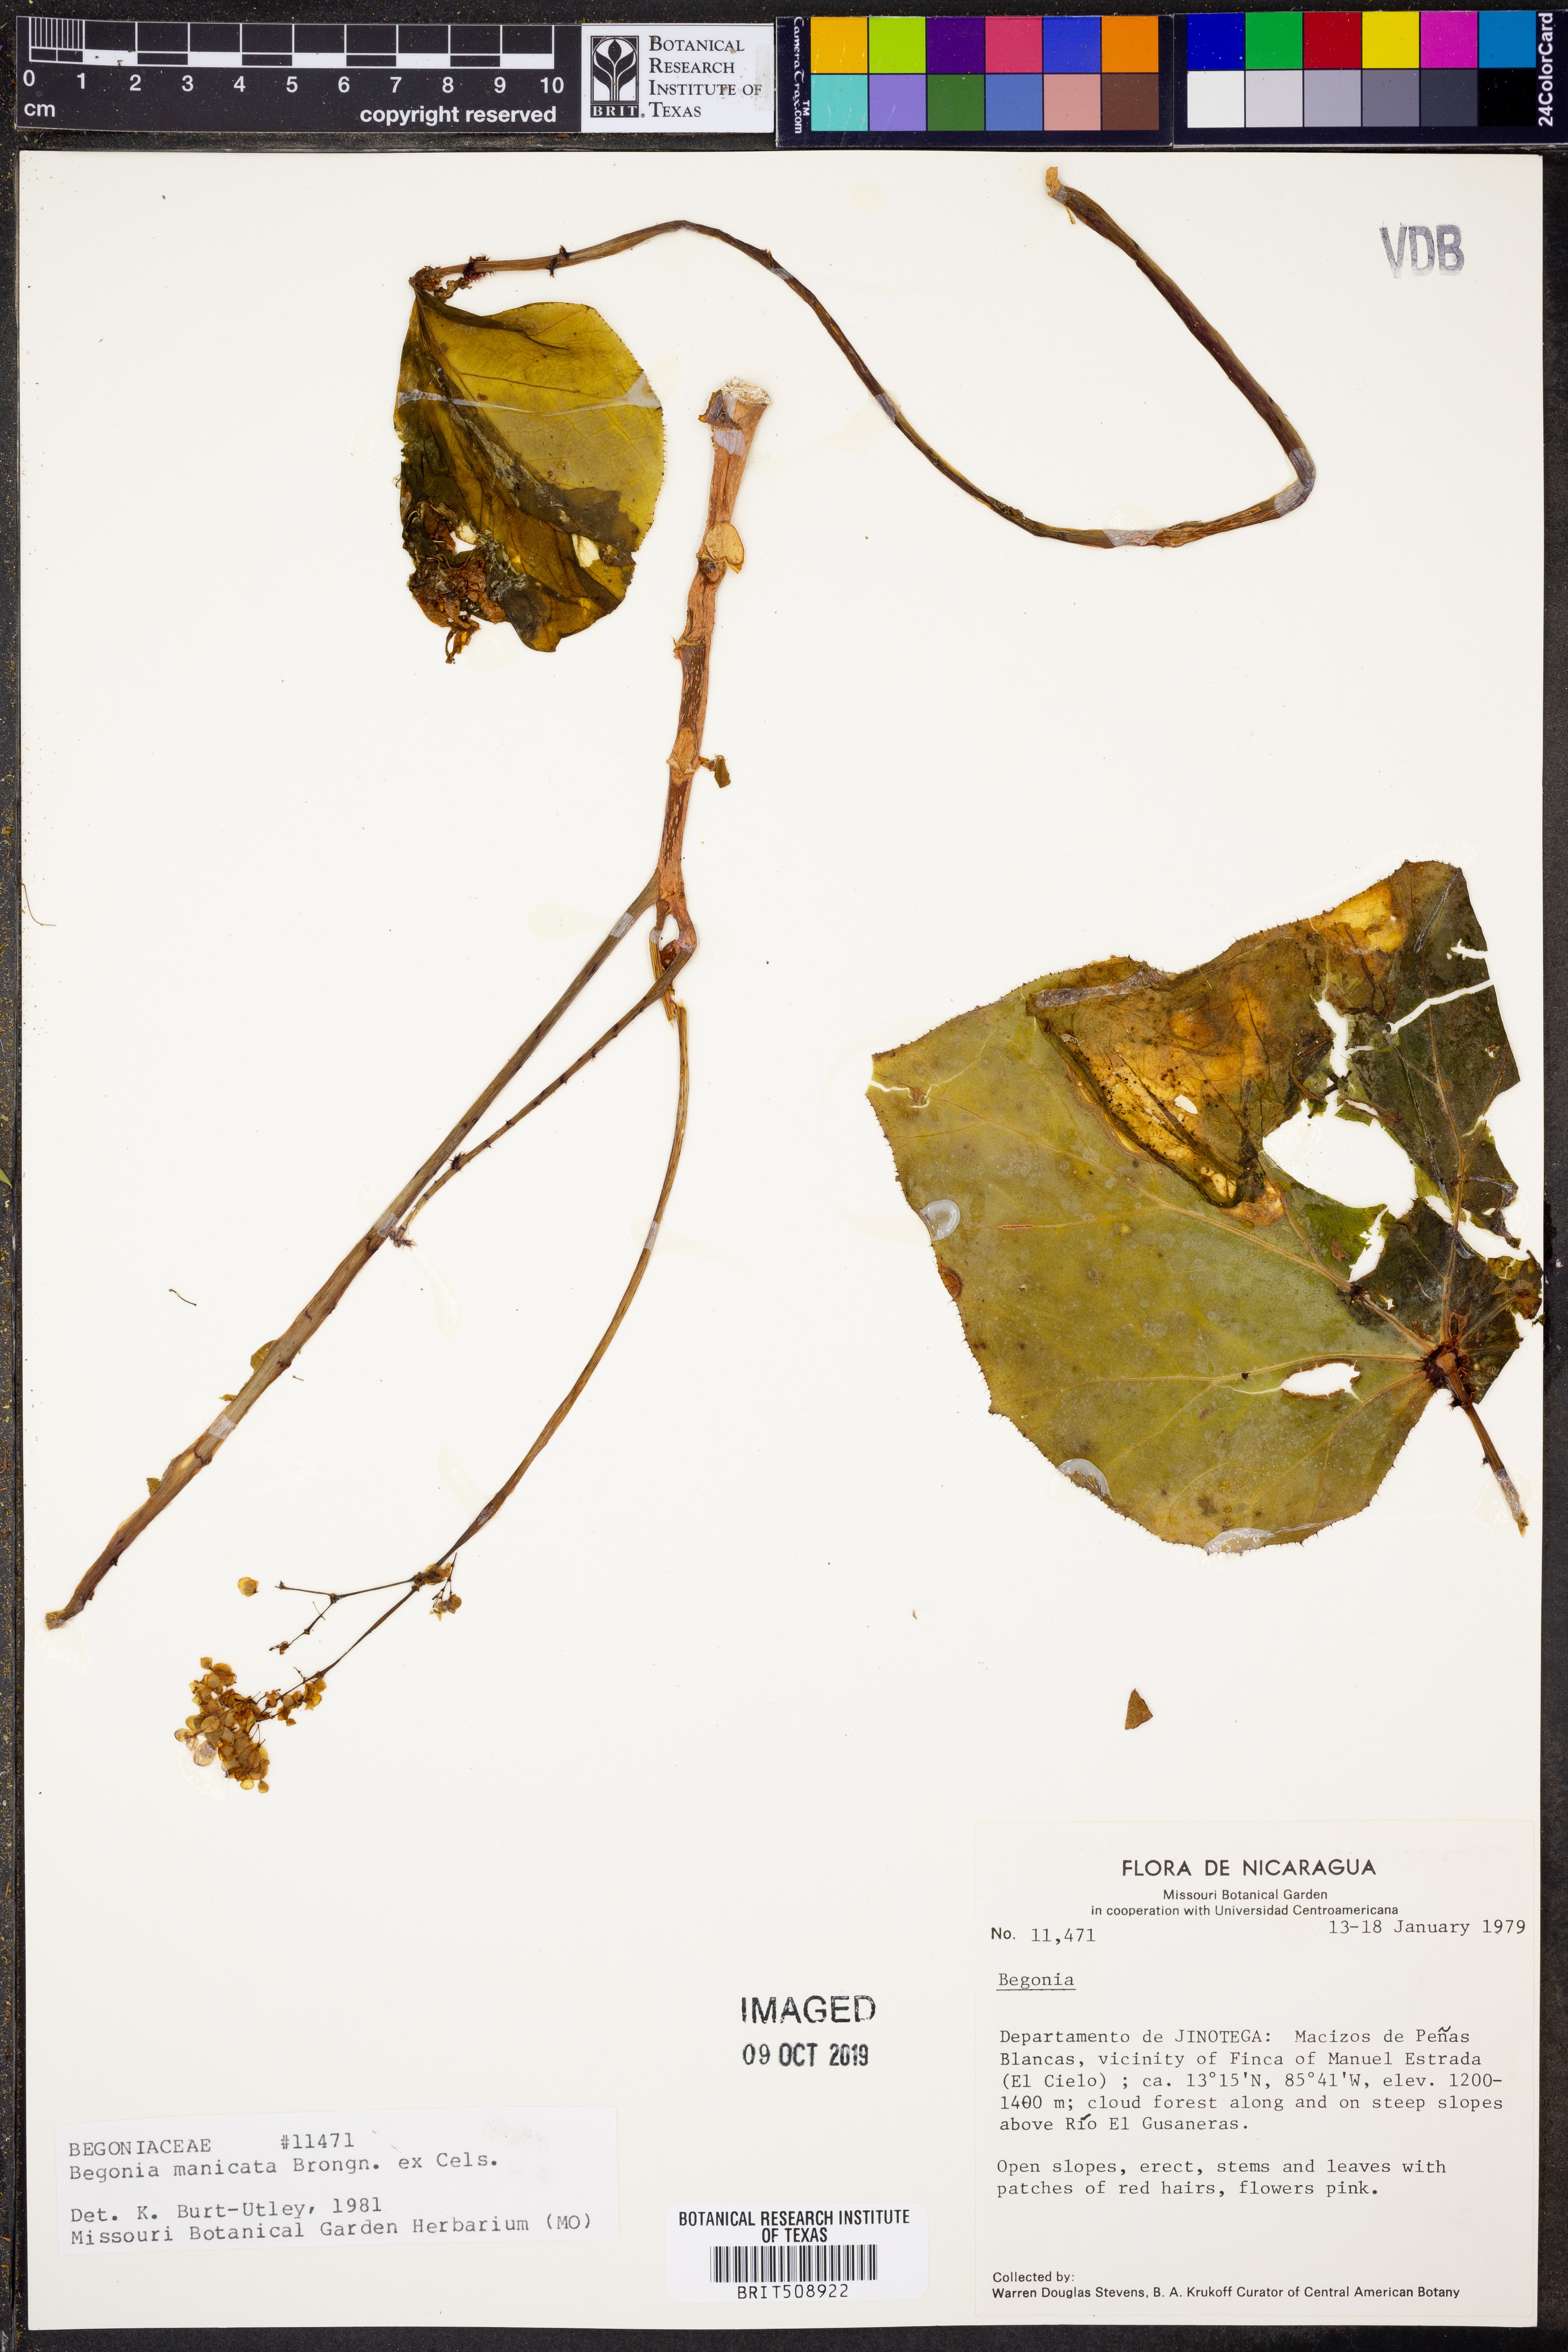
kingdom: Plantae
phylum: Tracheophyta
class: Magnoliopsida
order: Cucurbitales
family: Begoniaceae
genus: Begonia
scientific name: Begonia manicata
